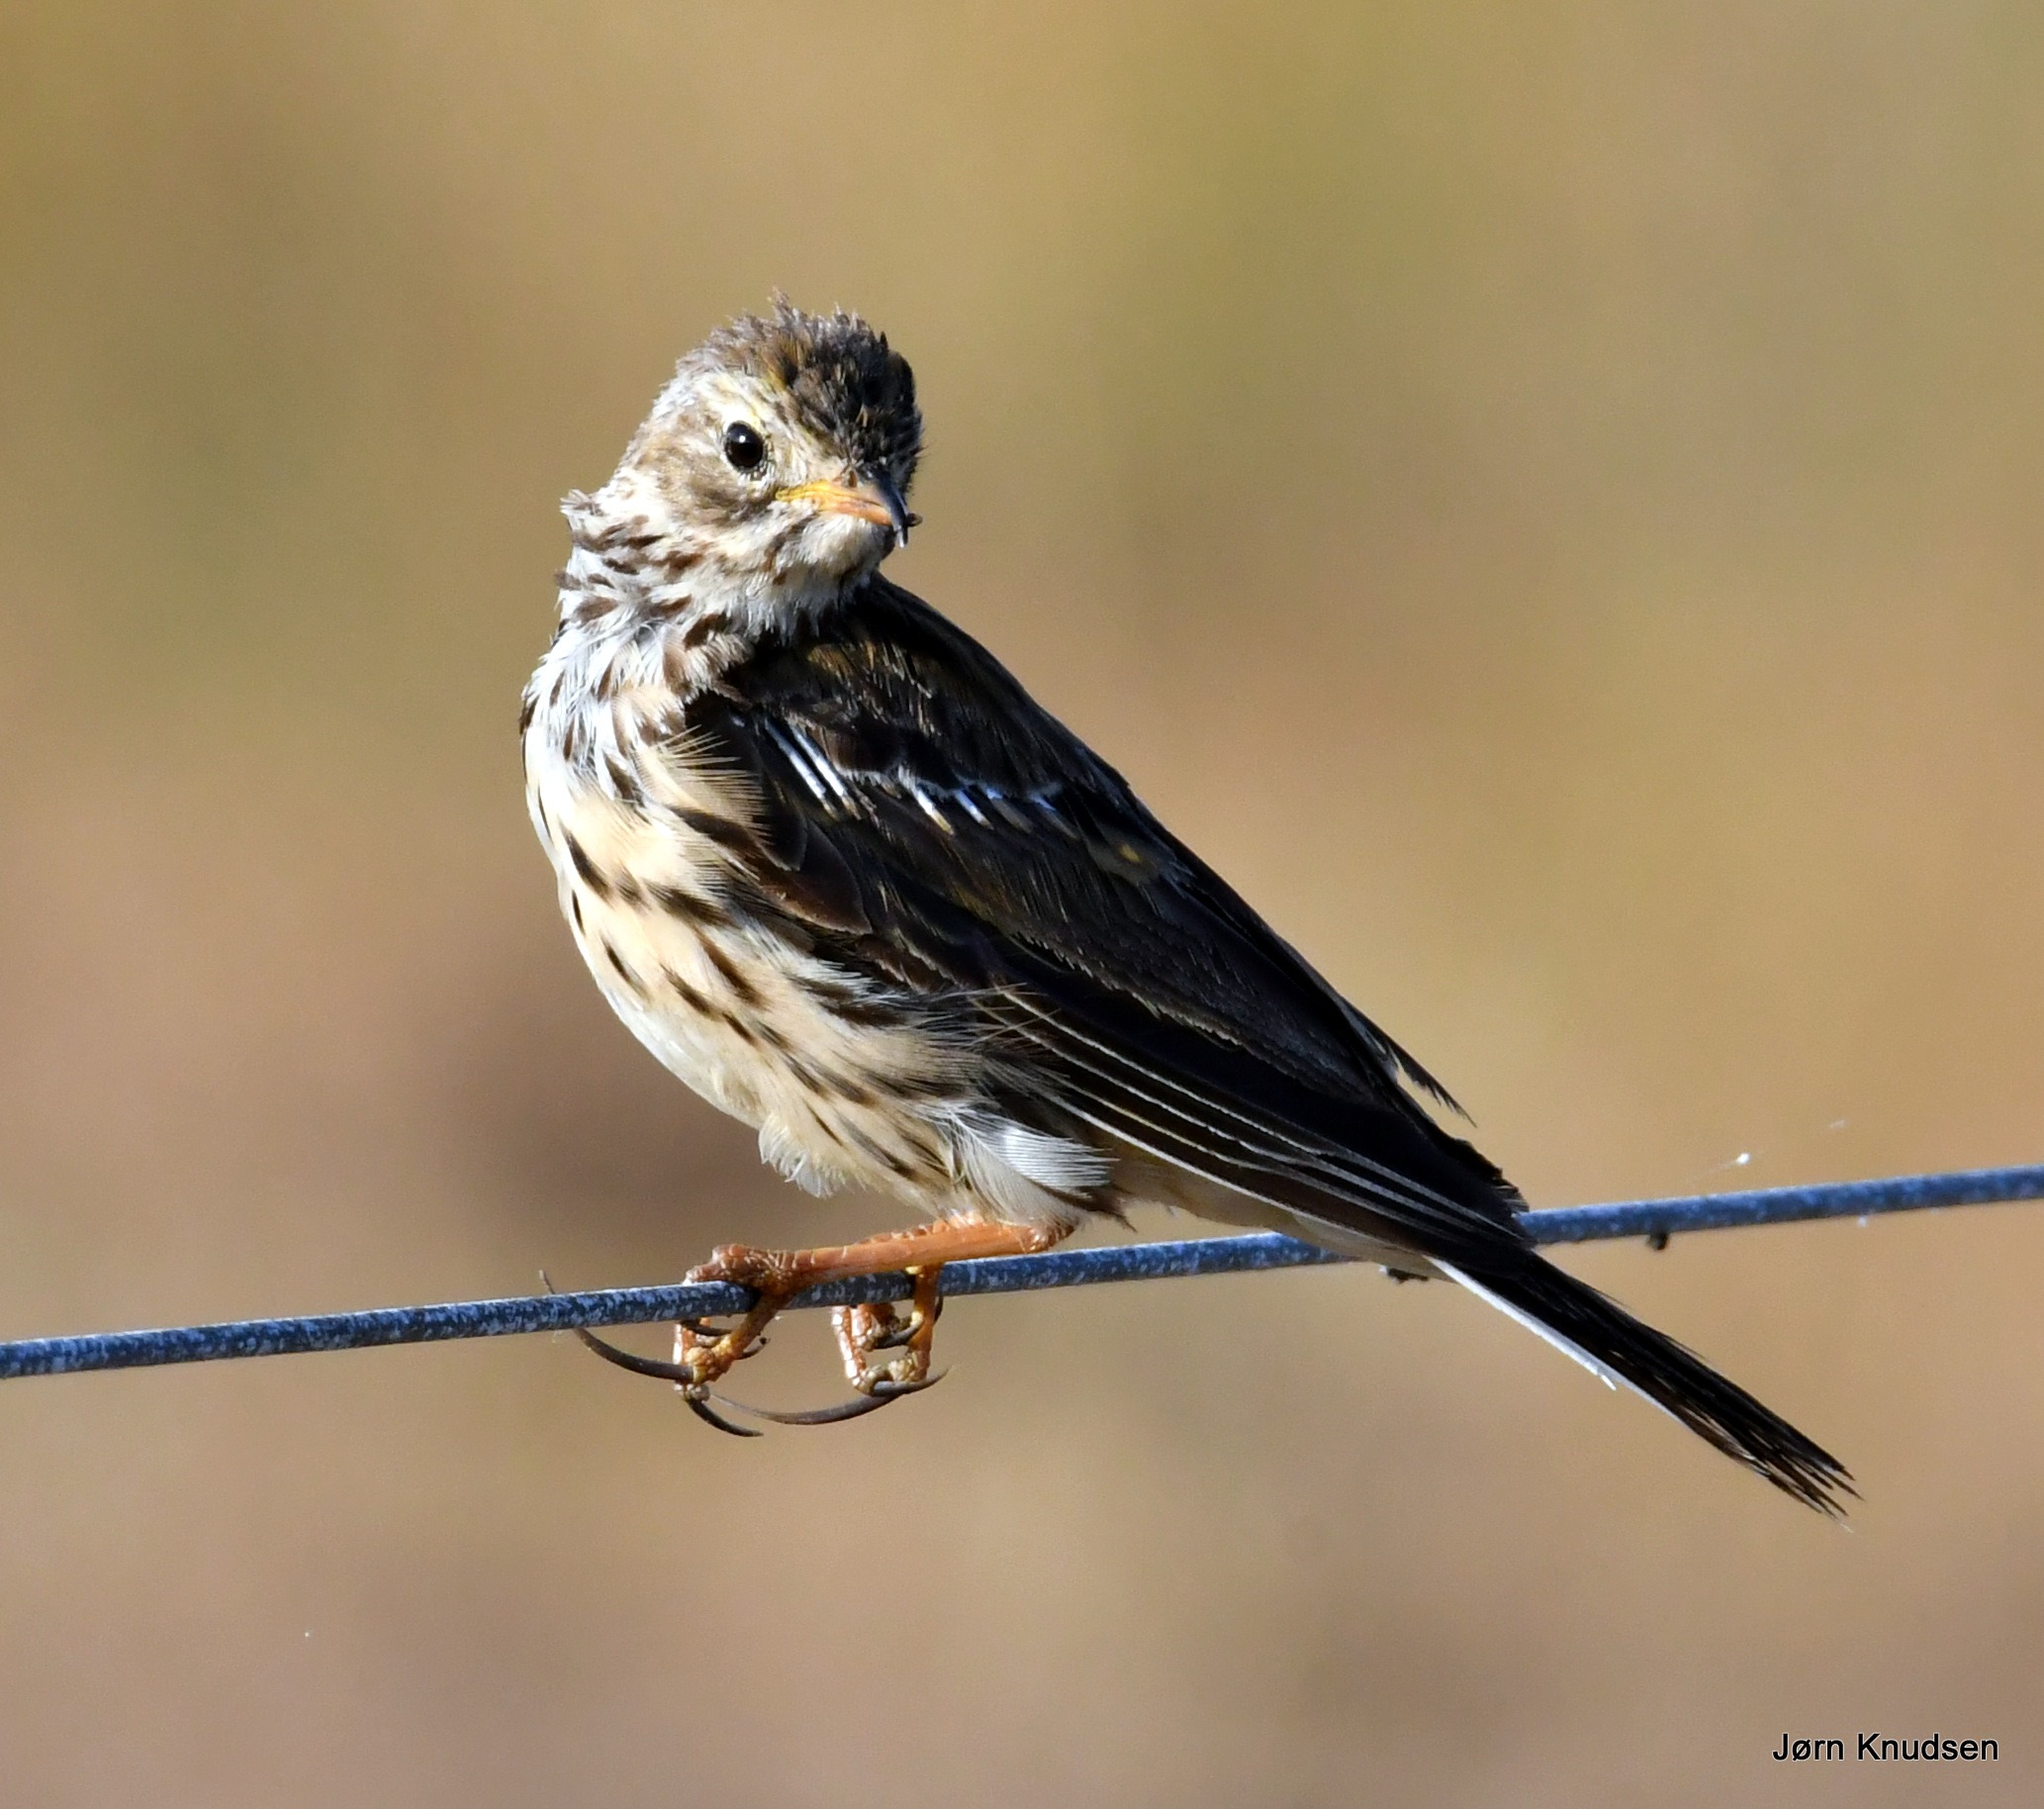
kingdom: Animalia
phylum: Chordata
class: Aves
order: Passeriformes
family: Motacillidae
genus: Anthus
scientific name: Anthus pratensis
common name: Engpiber
